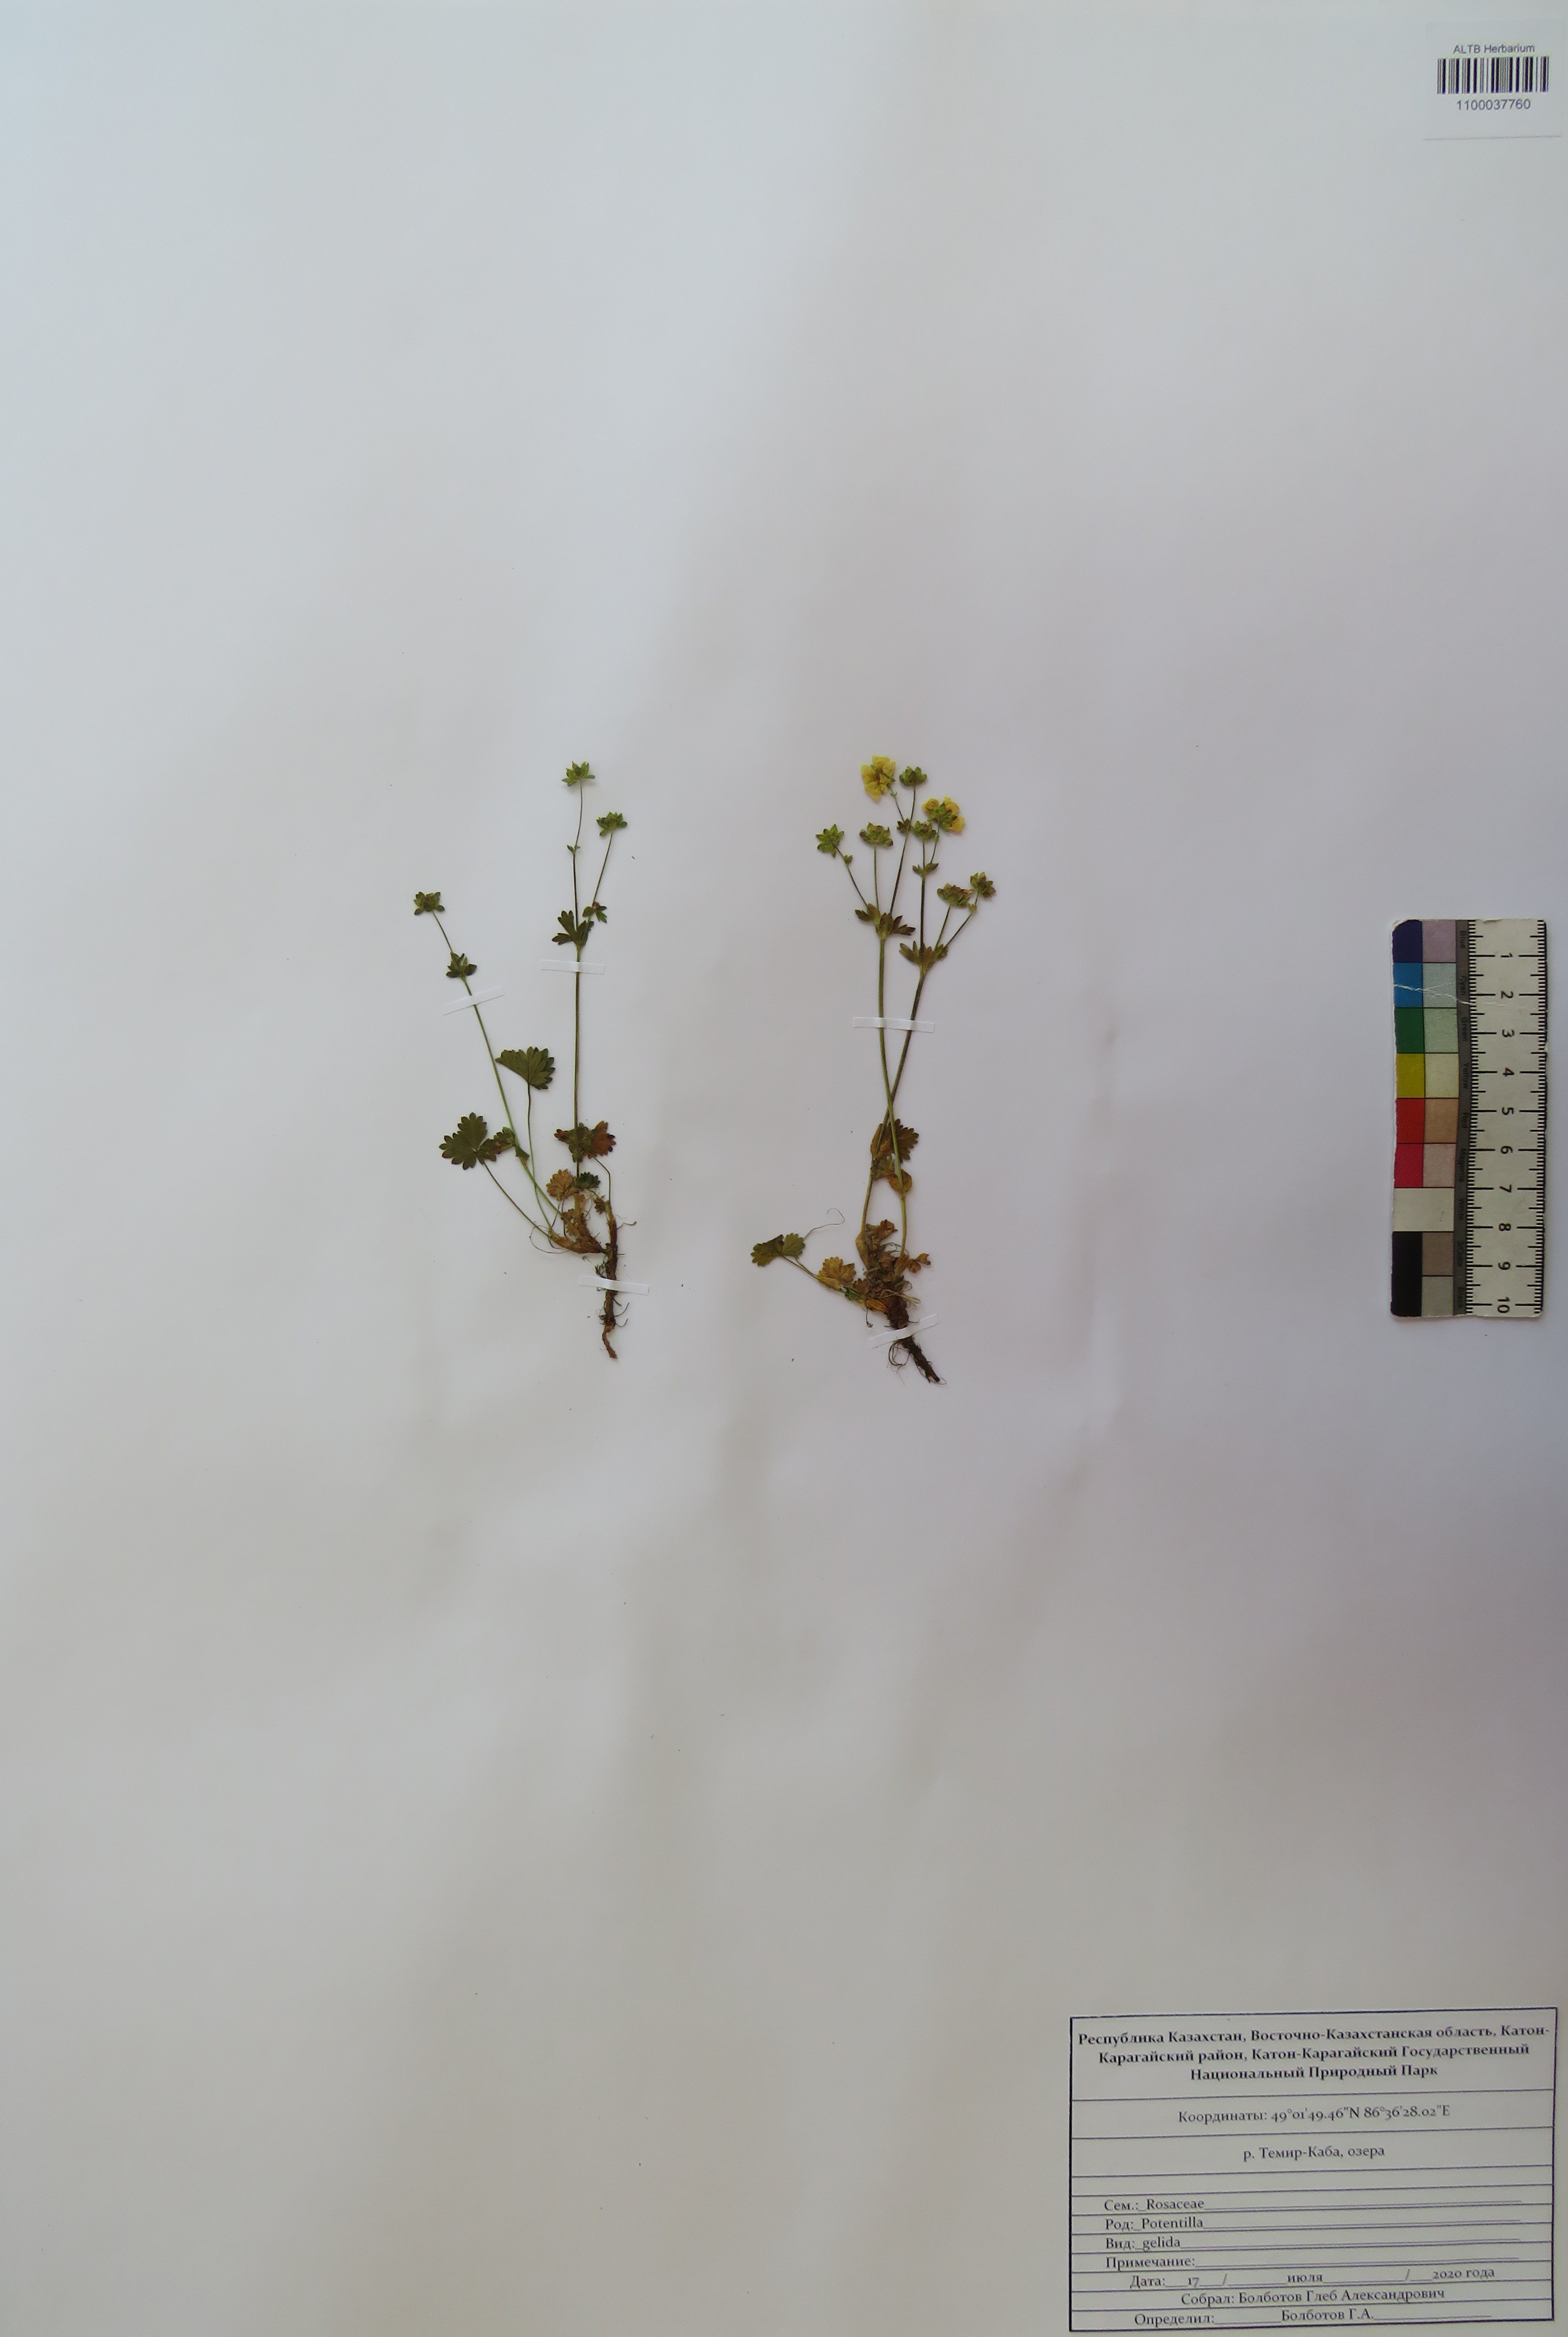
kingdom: Plantae
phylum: Tracheophyta
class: Magnoliopsida
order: Rosales
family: Rosaceae
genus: Potentilla
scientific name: Potentilla crantzii
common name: Alpine cinquefoil
